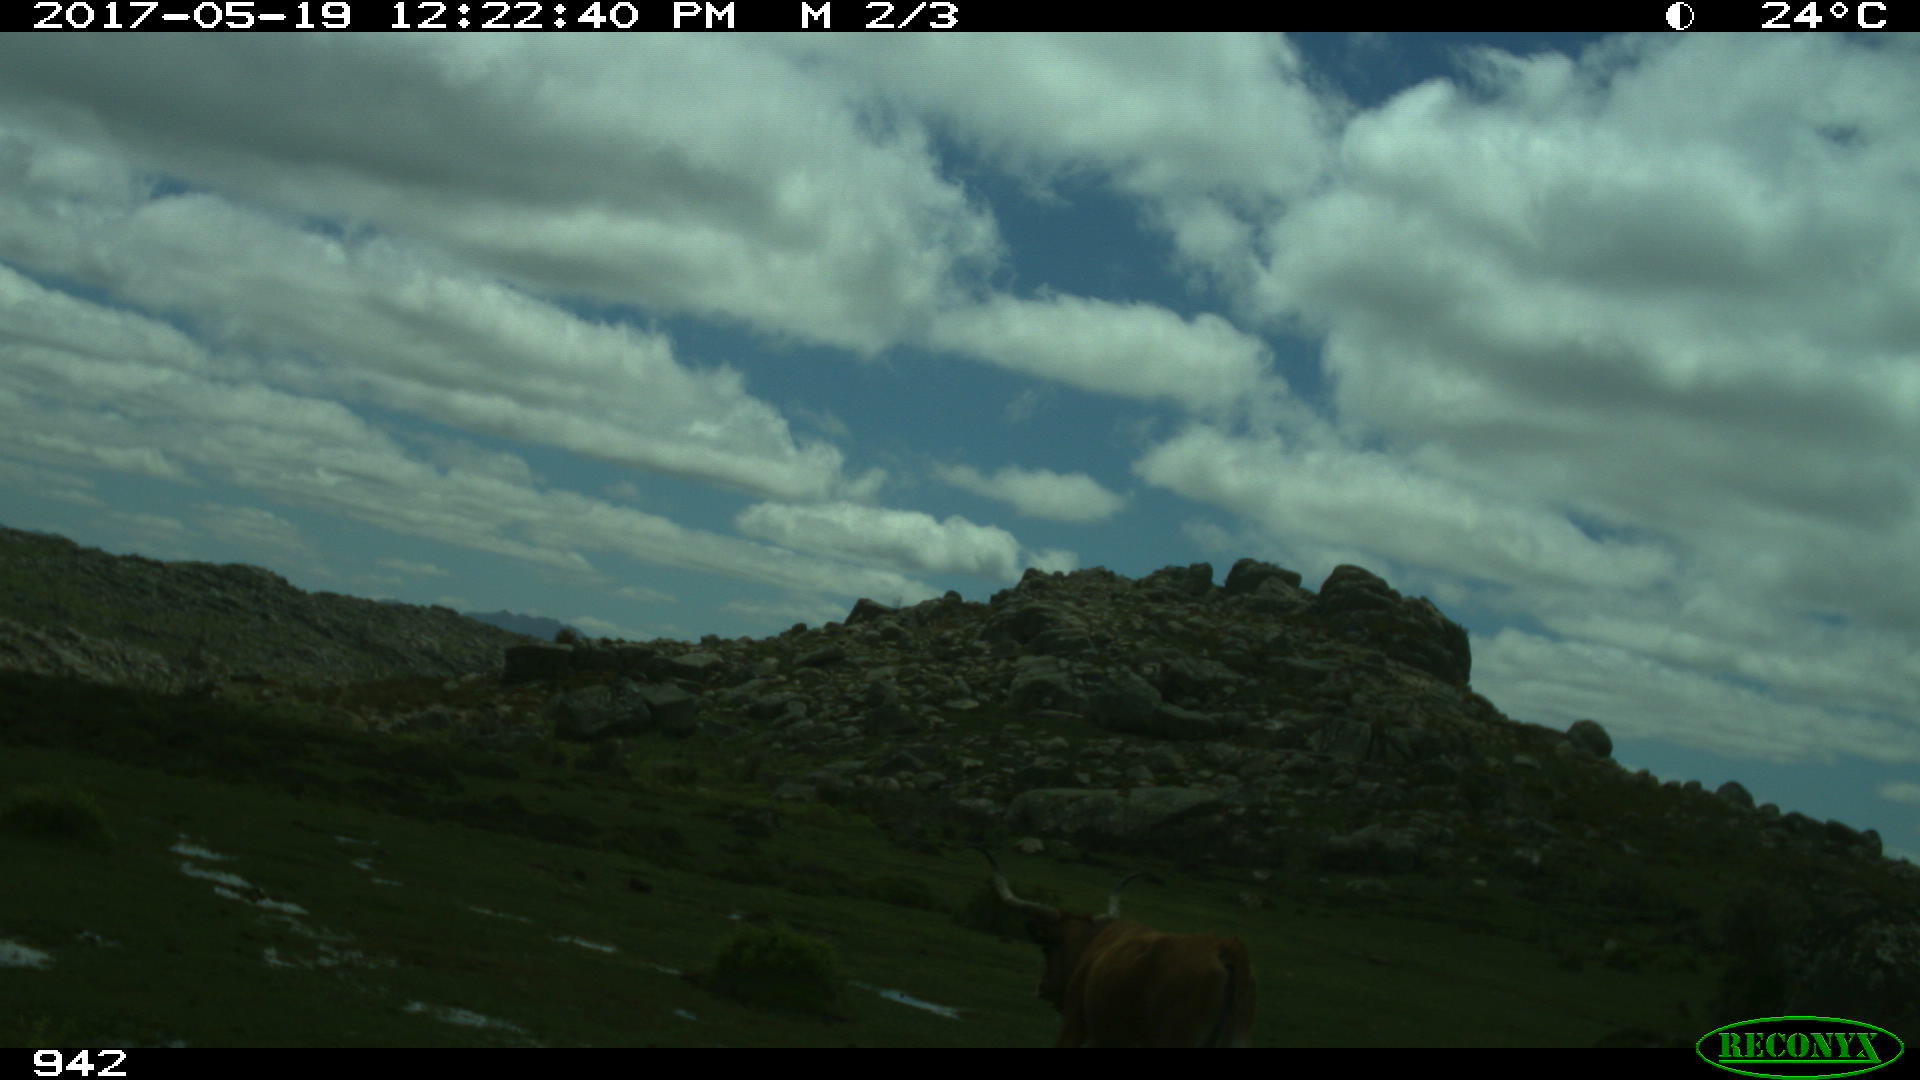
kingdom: Animalia
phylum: Chordata
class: Mammalia
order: Artiodactyla
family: Bovidae
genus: Bos
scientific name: Bos taurus
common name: Domesticated cattle
